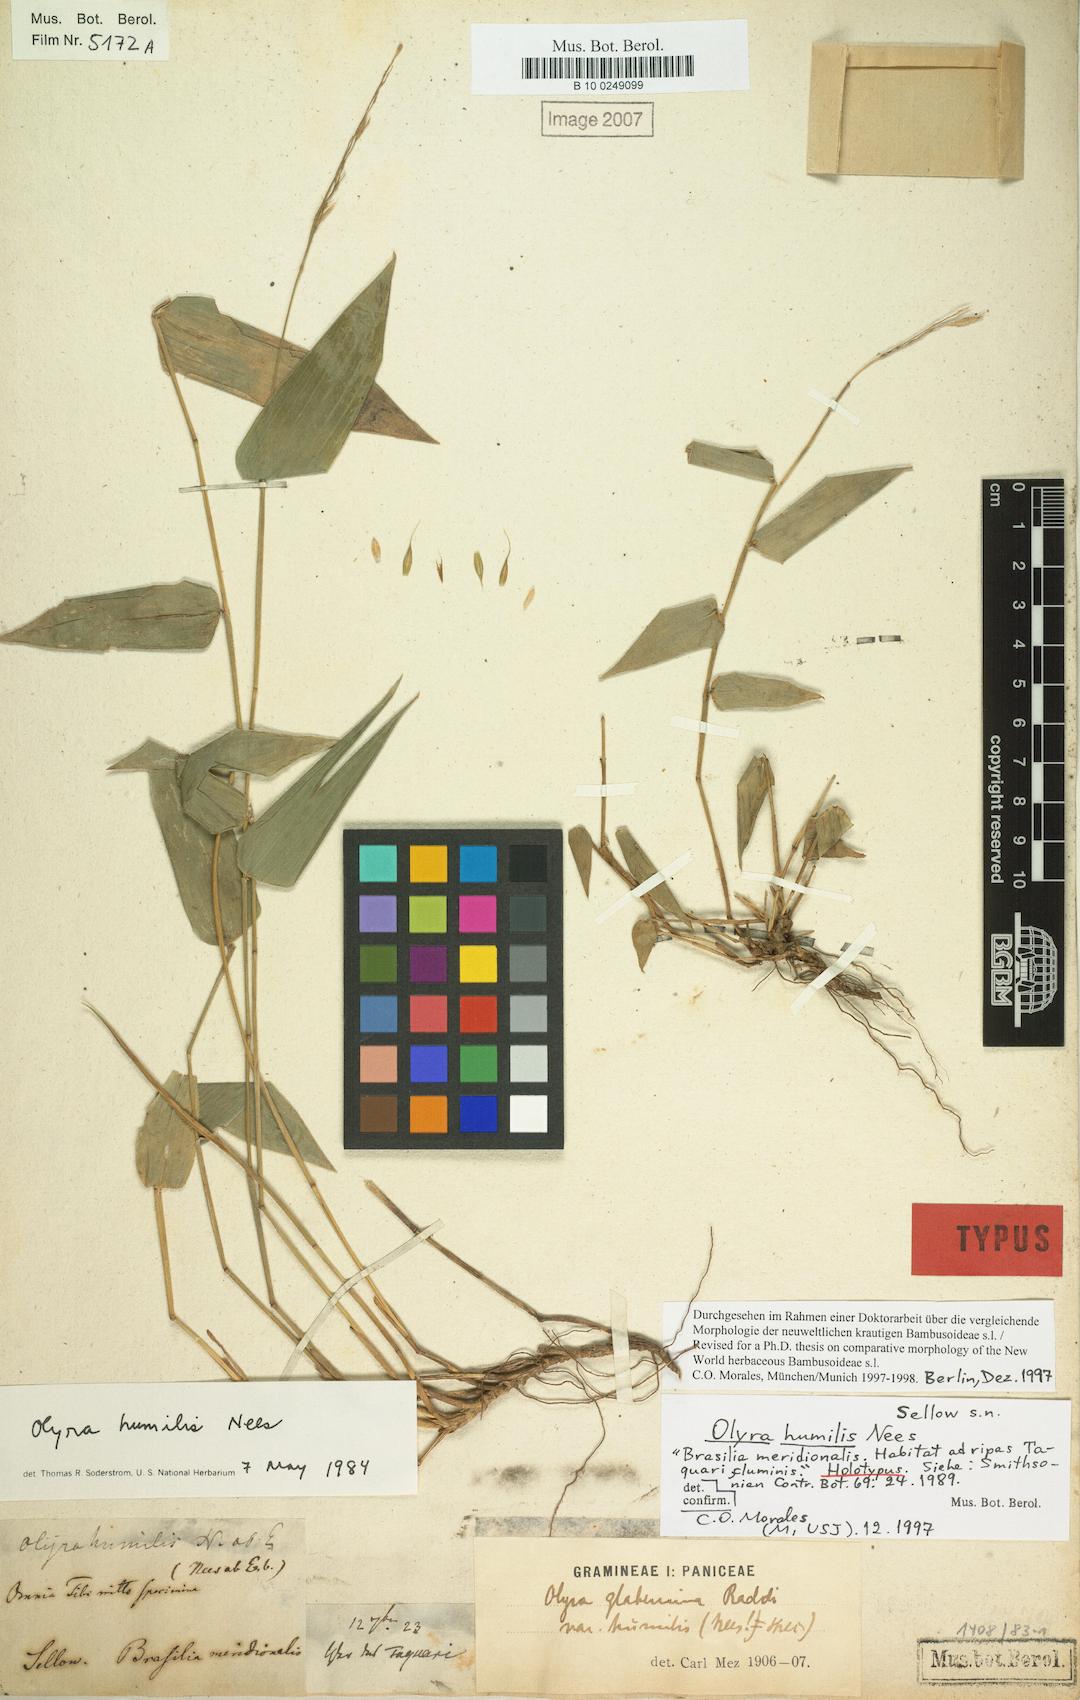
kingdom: Plantae
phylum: Tracheophyta
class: Liliopsida
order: Poales
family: Poaceae
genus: Olyra
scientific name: Olyra humilis
